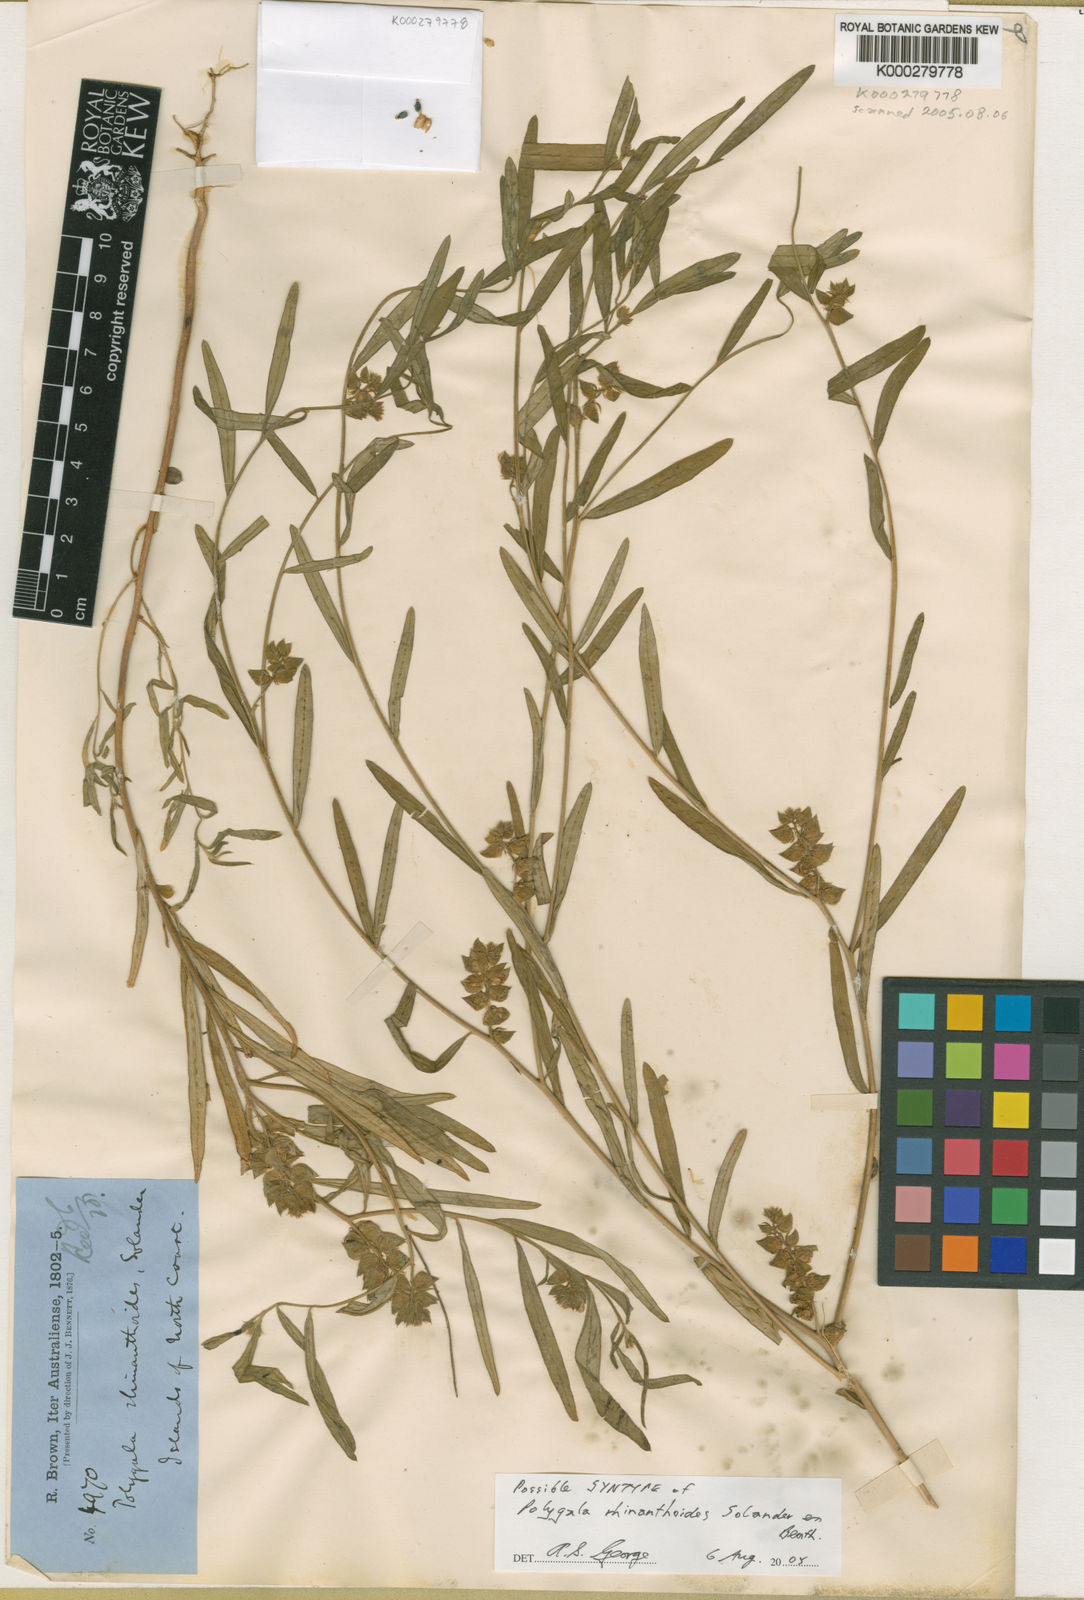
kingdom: Plantae
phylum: Tracheophyta
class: Magnoliopsida
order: Fabales
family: Polygalaceae
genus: Polygala
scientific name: Polygala rhinanthoides
